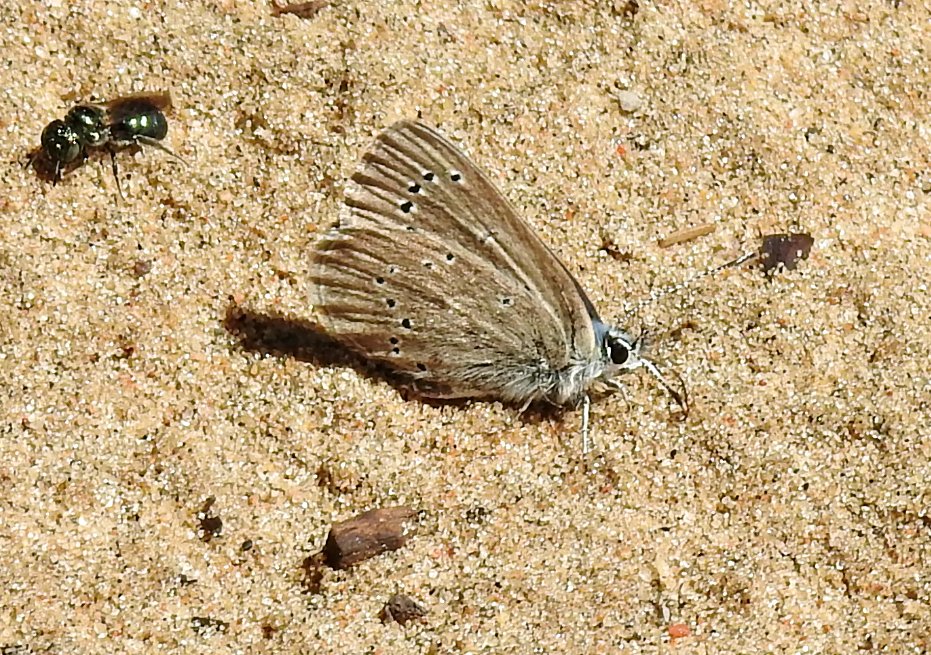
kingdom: Animalia
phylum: Arthropoda
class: Insecta
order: Lepidoptera
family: Lycaenidae
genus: Glaucopsyche
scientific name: Glaucopsyche lygdamus
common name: Silvery Blue
